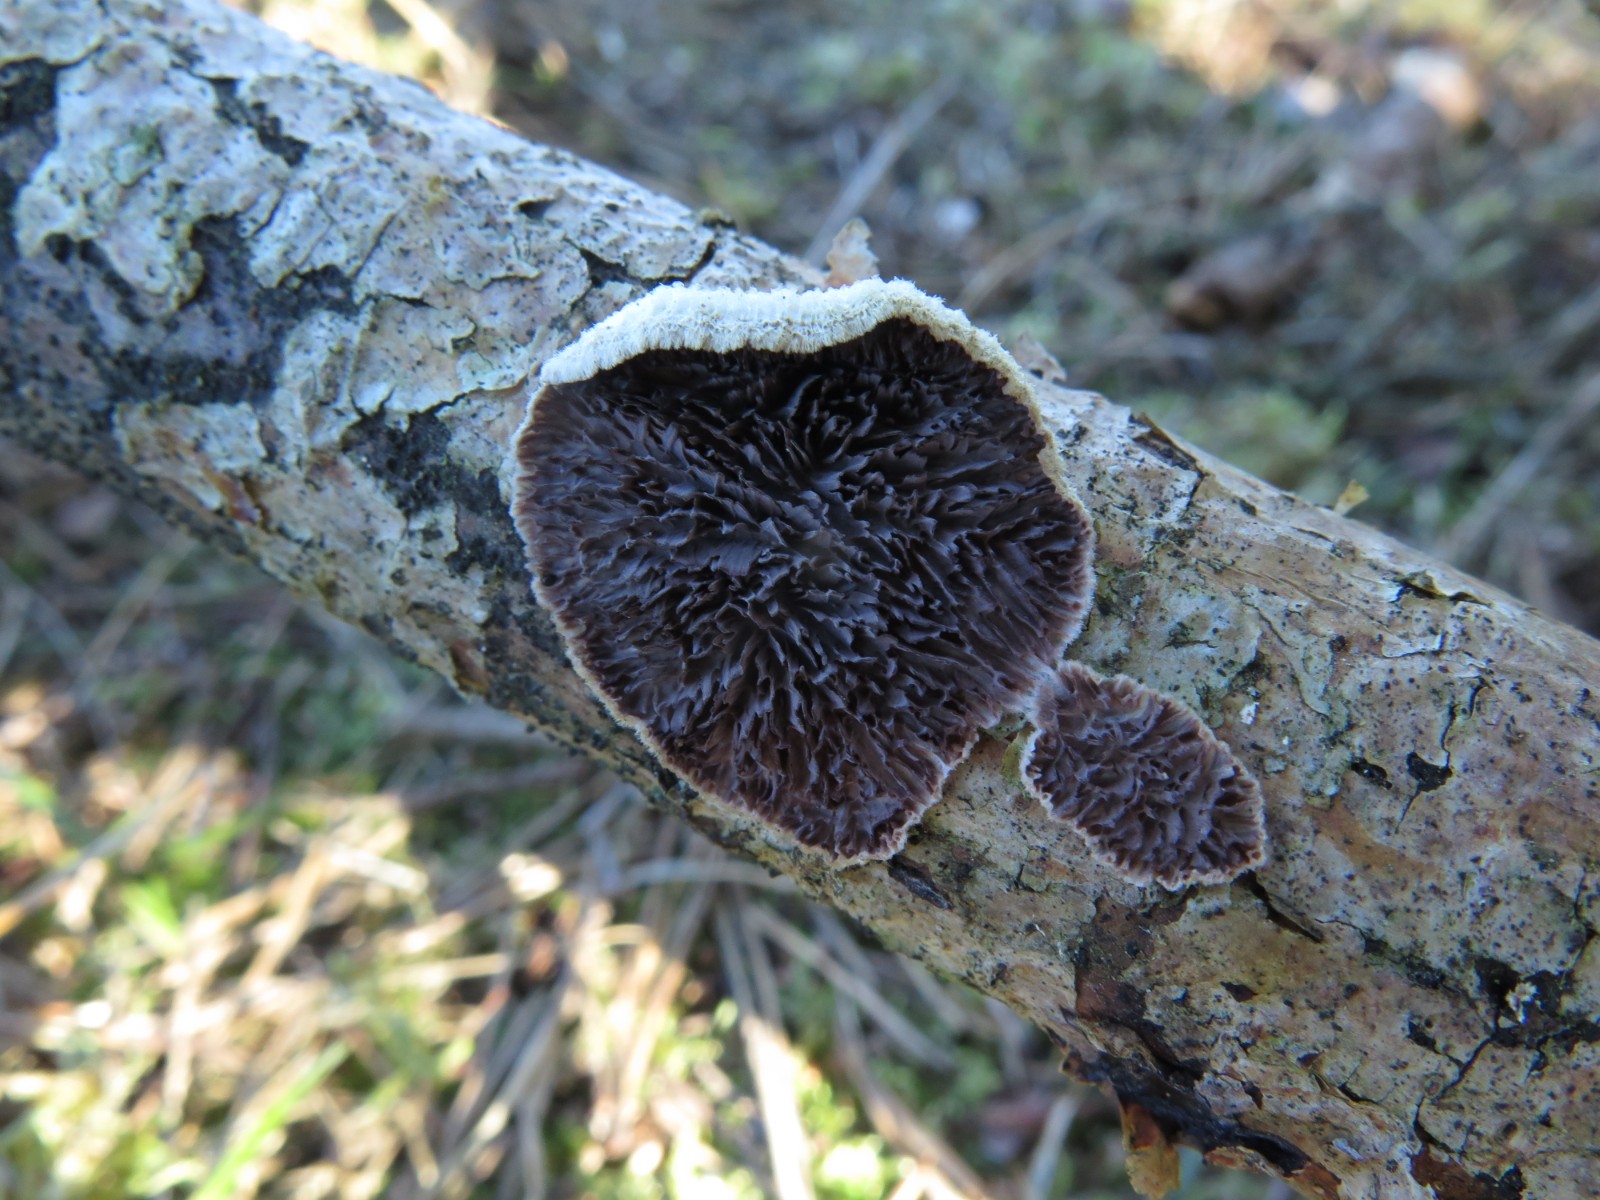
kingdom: Fungi
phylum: Basidiomycota
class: Agaricomycetes
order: Hymenochaetales
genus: Trichaptum
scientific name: Trichaptum fuscoviolaceum
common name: tandet violporesvamp
